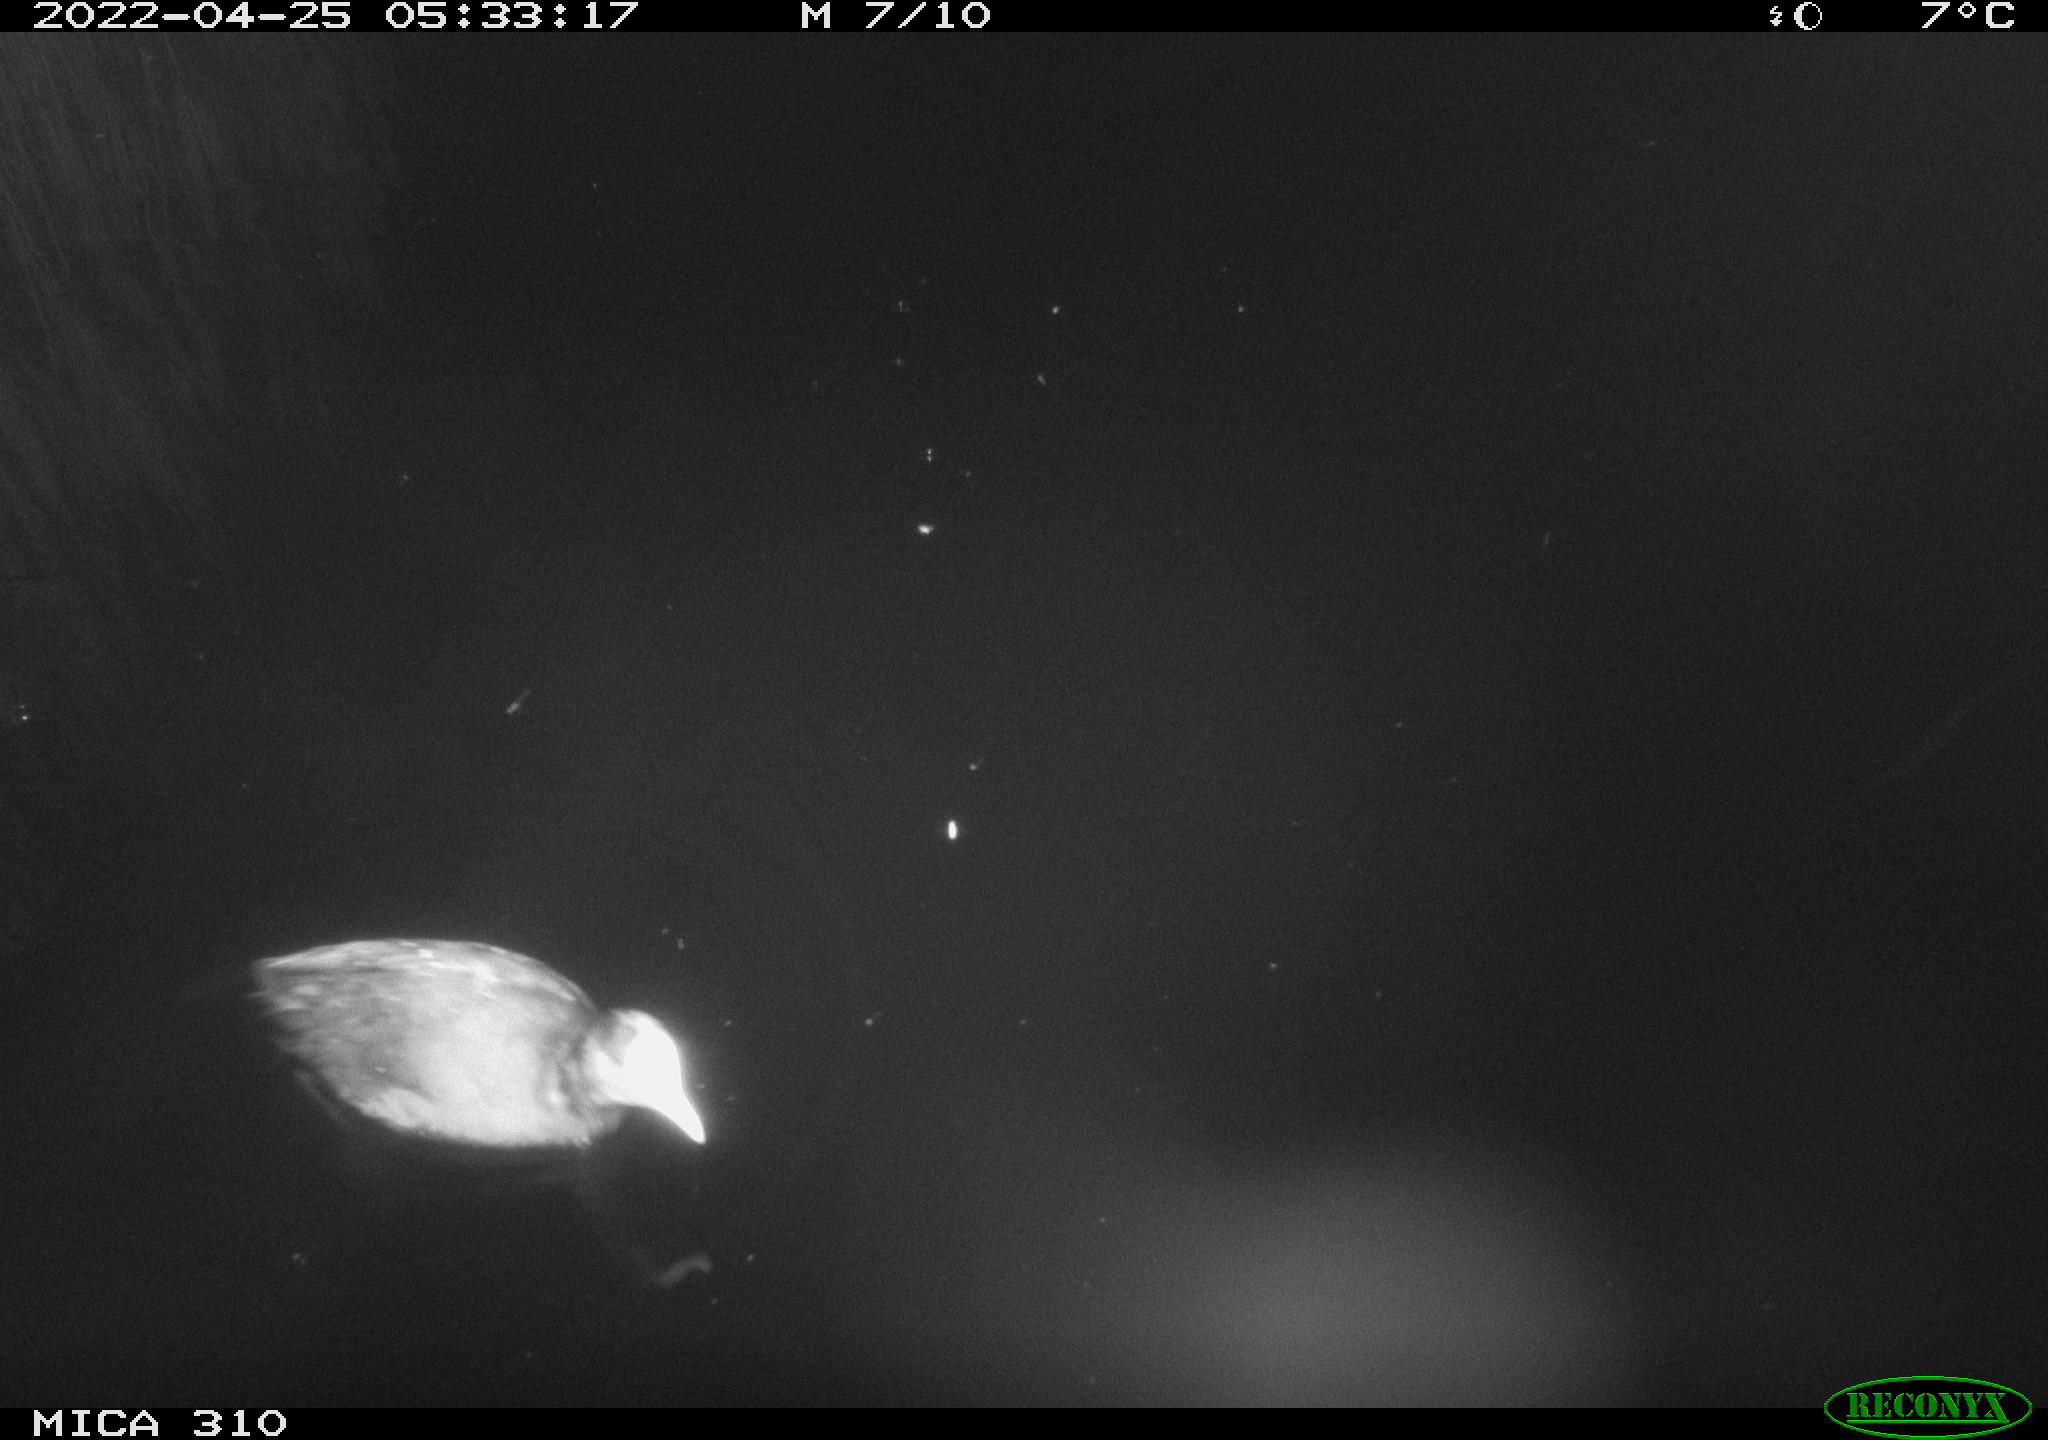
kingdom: Animalia
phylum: Chordata
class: Aves
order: Gruiformes
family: Rallidae
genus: Fulica
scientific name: Fulica atra
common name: Eurasian coot
